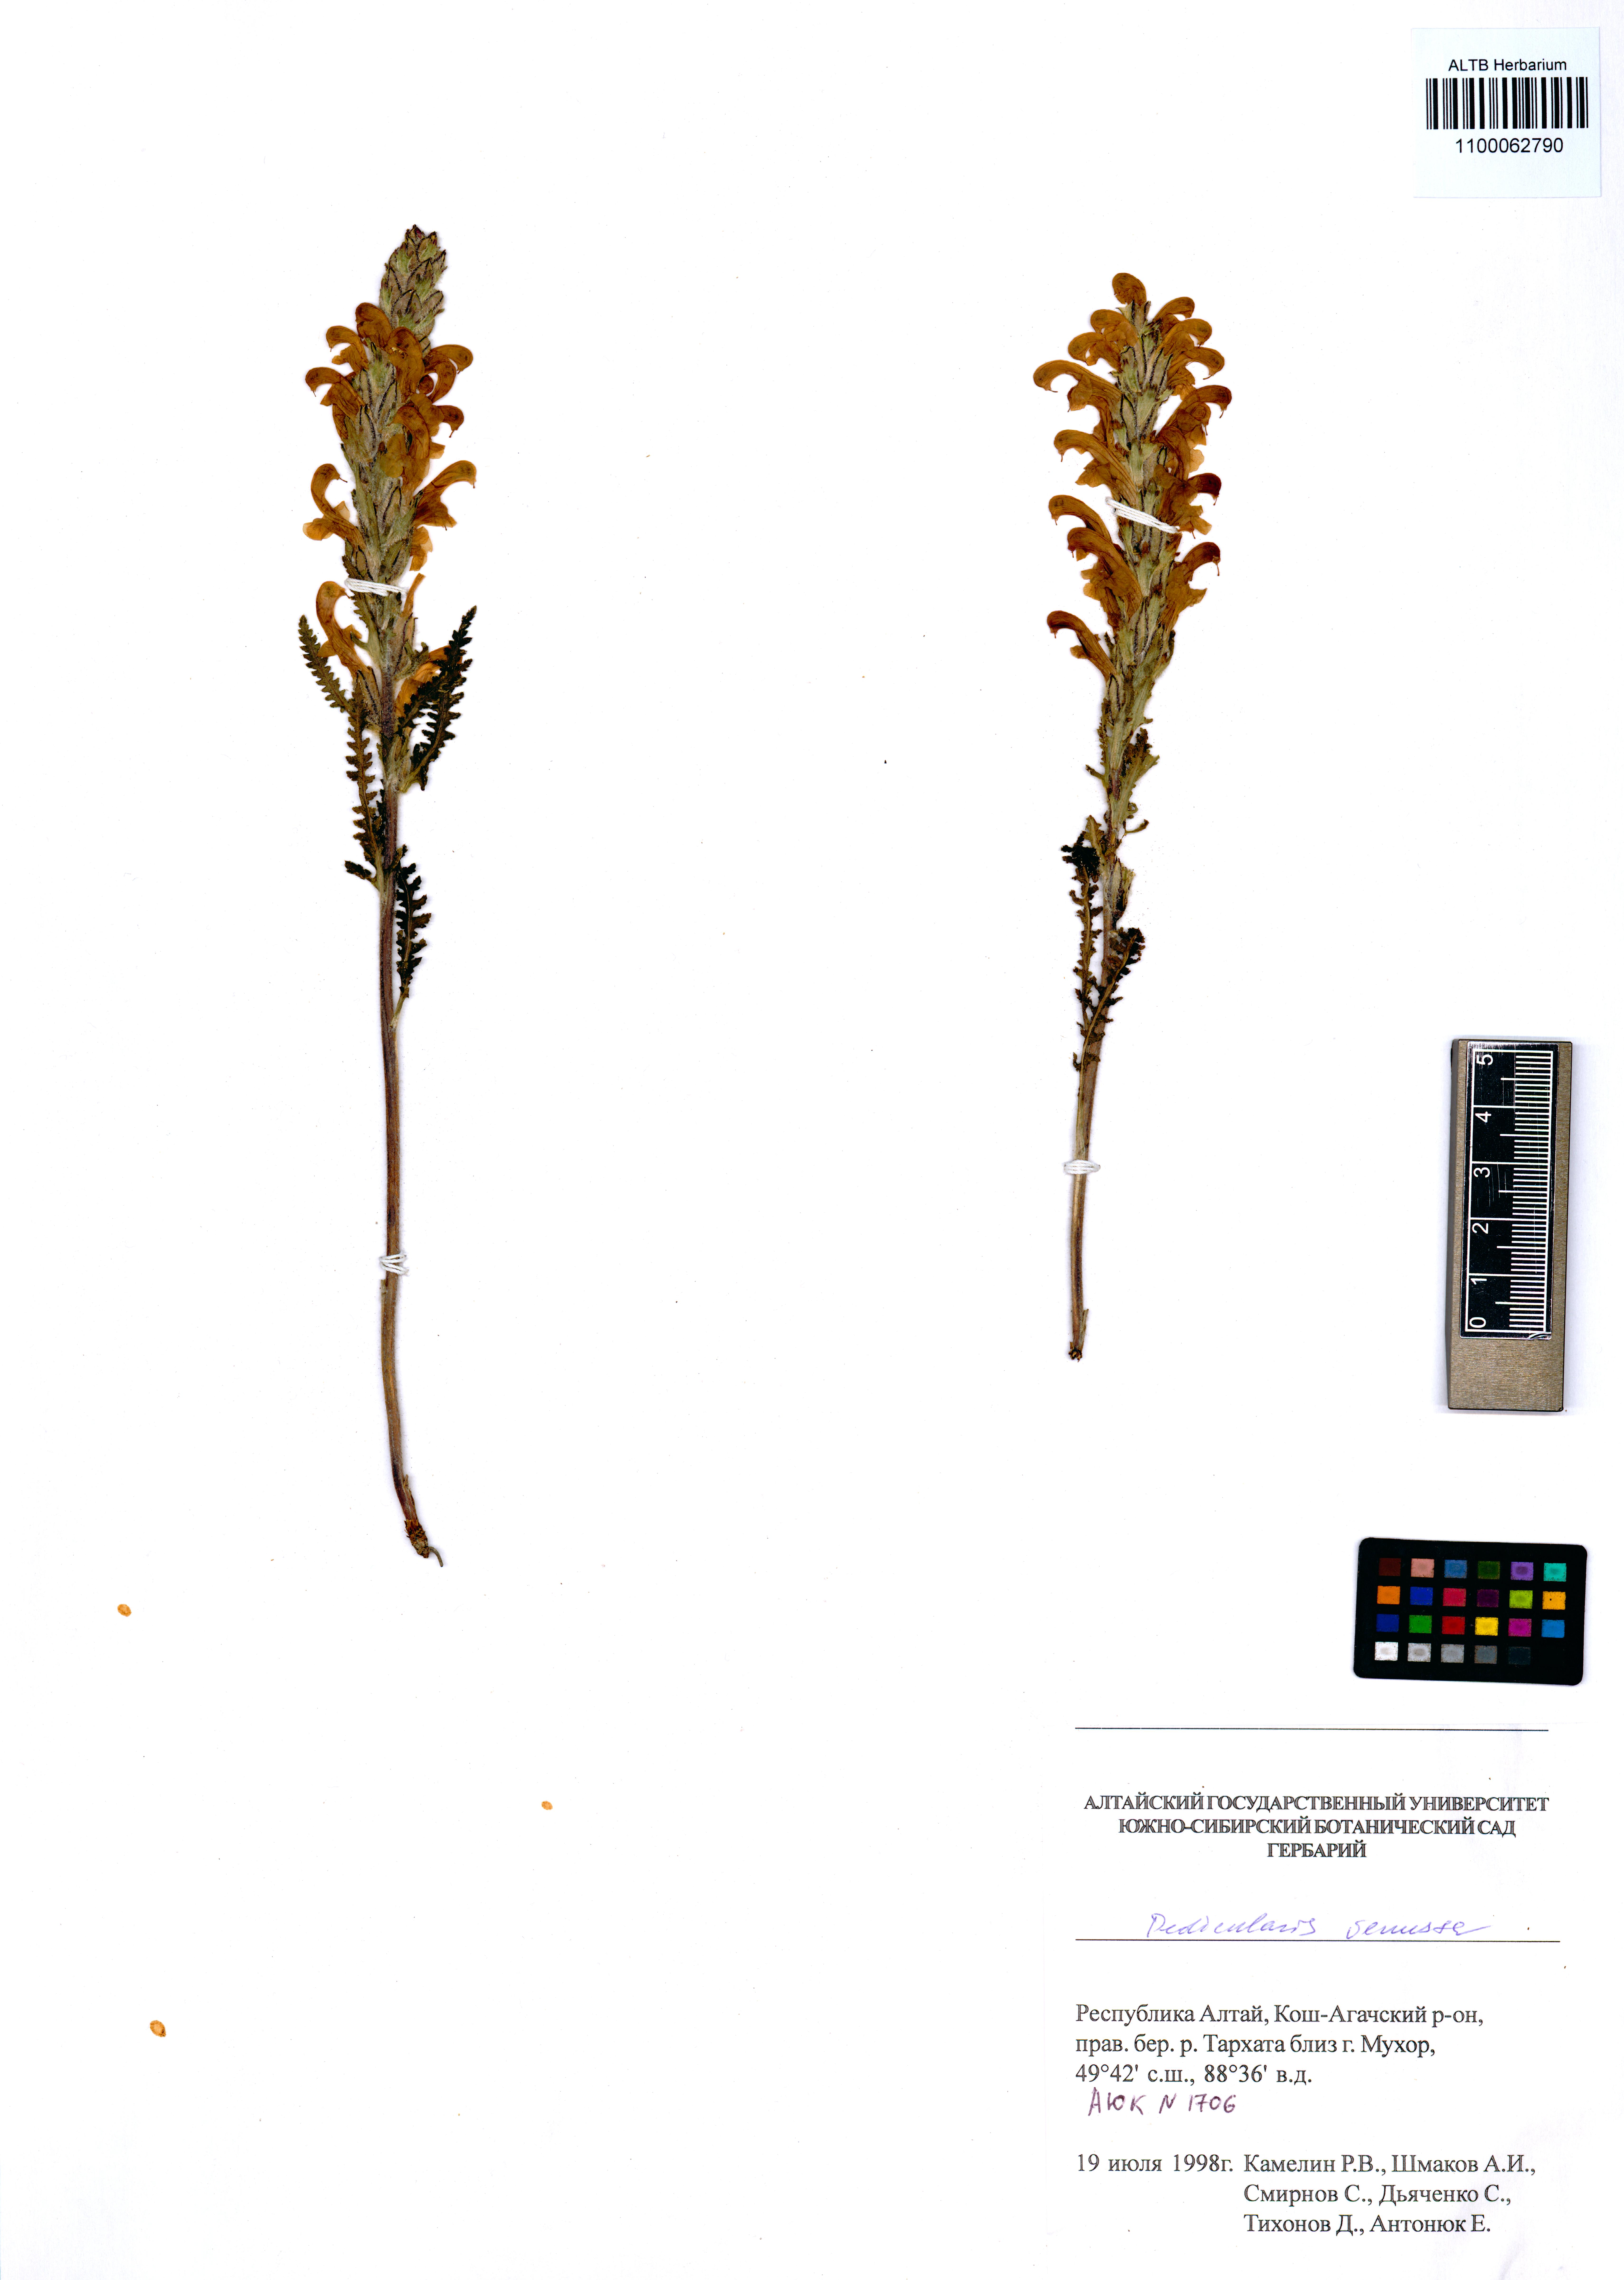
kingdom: Plantae
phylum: Tracheophyta
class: Magnoliopsida
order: Lamiales
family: Orobanchaceae
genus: Pedicularis
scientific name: Pedicularis venusta
